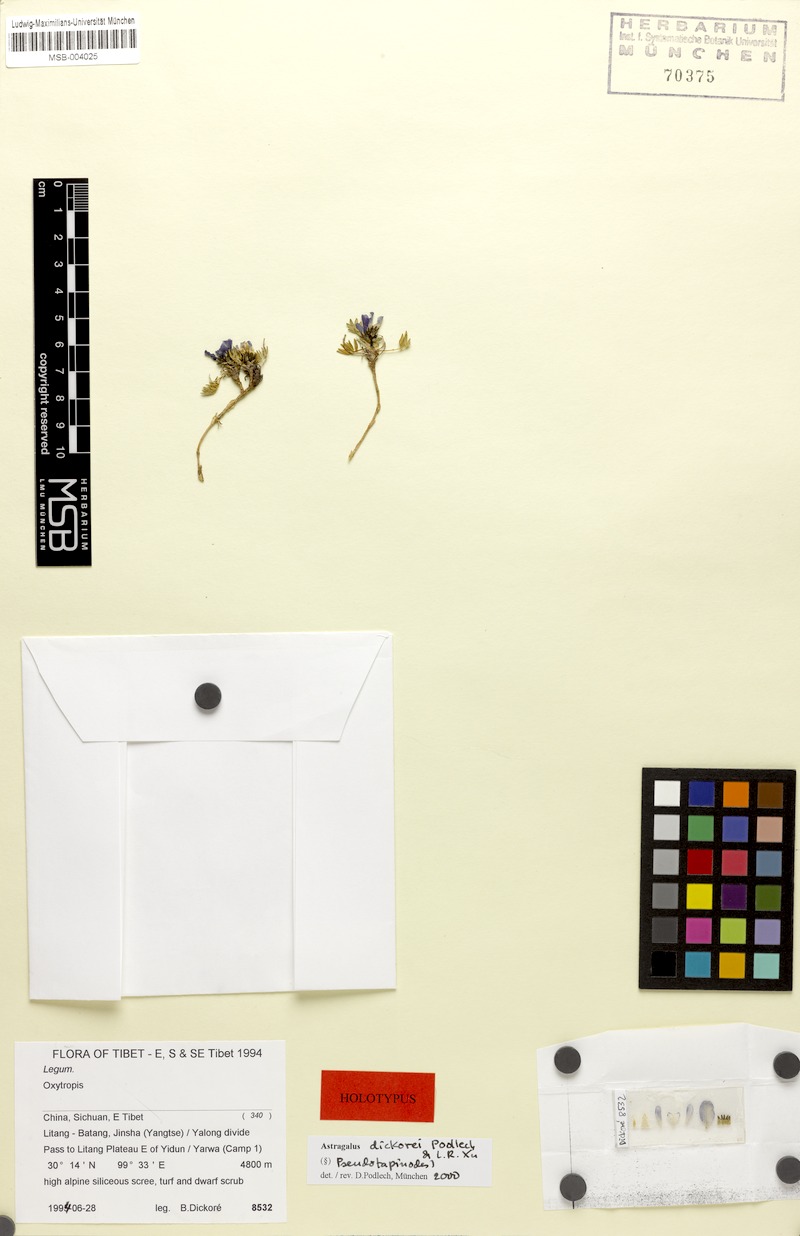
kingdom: Plantae
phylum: Tracheophyta
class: Magnoliopsida
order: Fabales
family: Fabaceae
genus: Astragalus
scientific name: Astragalus dickorei
